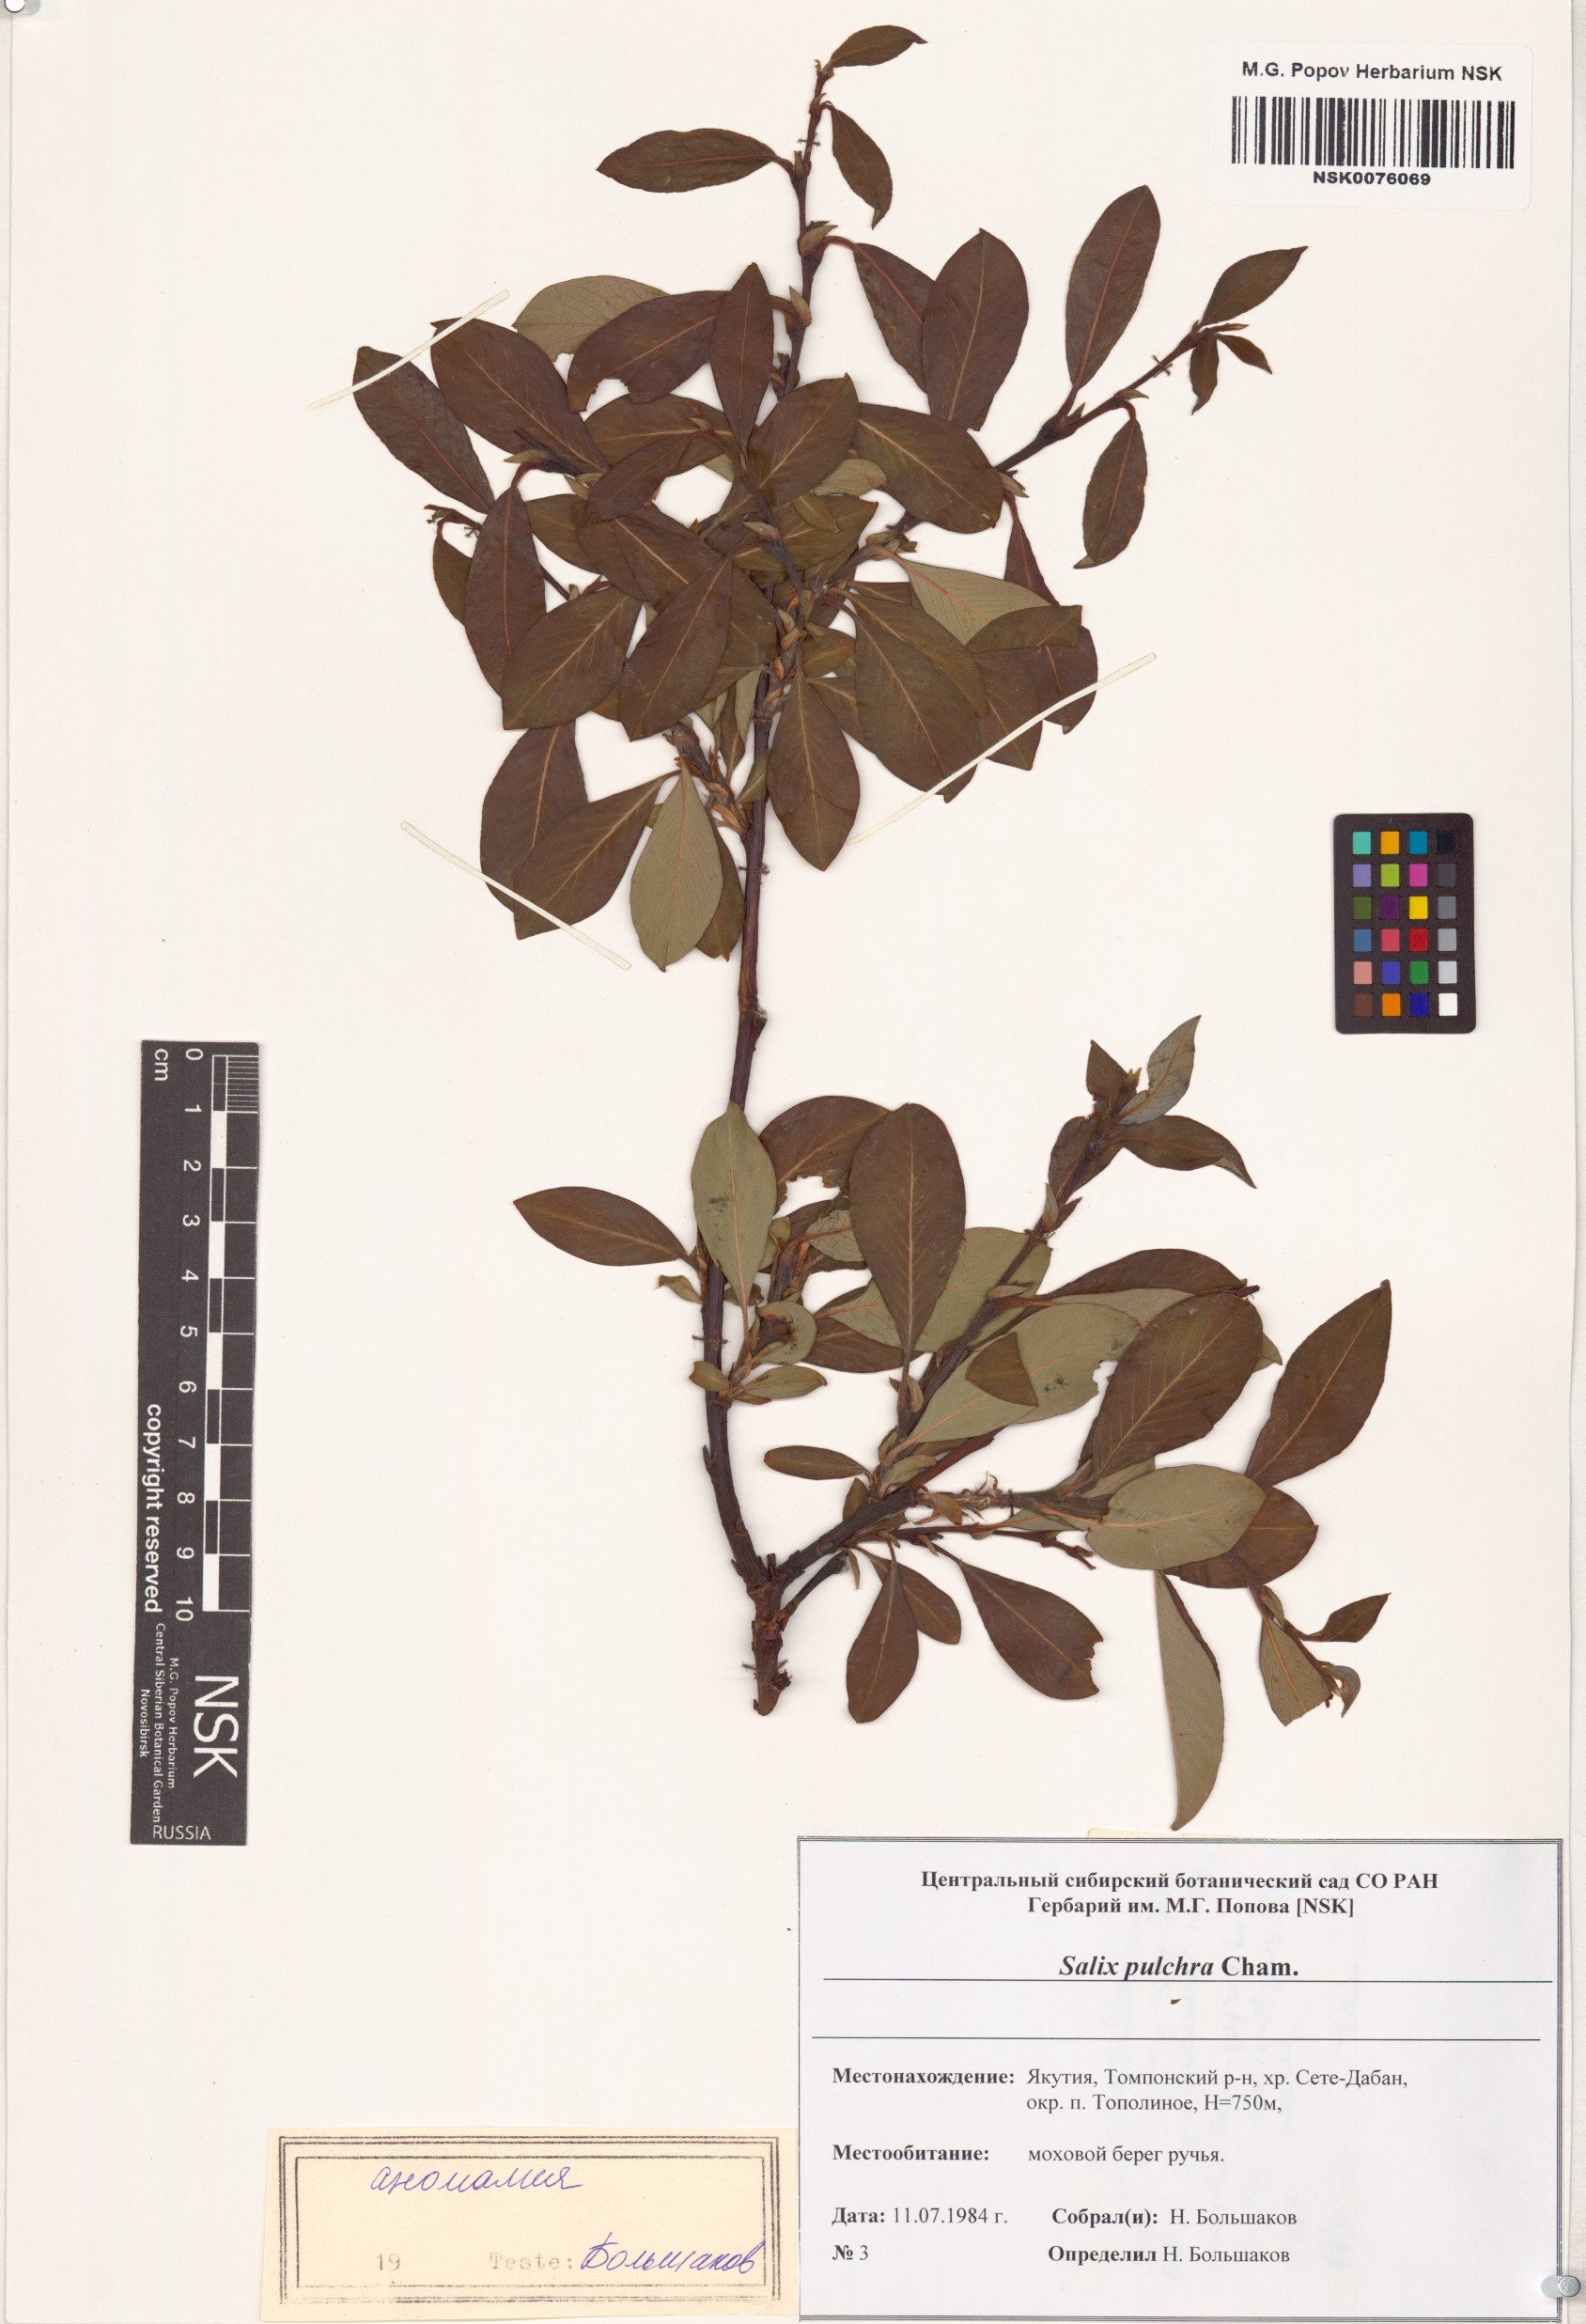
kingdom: Plantae
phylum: Tracheophyta
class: Magnoliopsida
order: Malpighiales
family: Salicaceae
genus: Salix
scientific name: Salix pulchra
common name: Diamond-leaved willow
